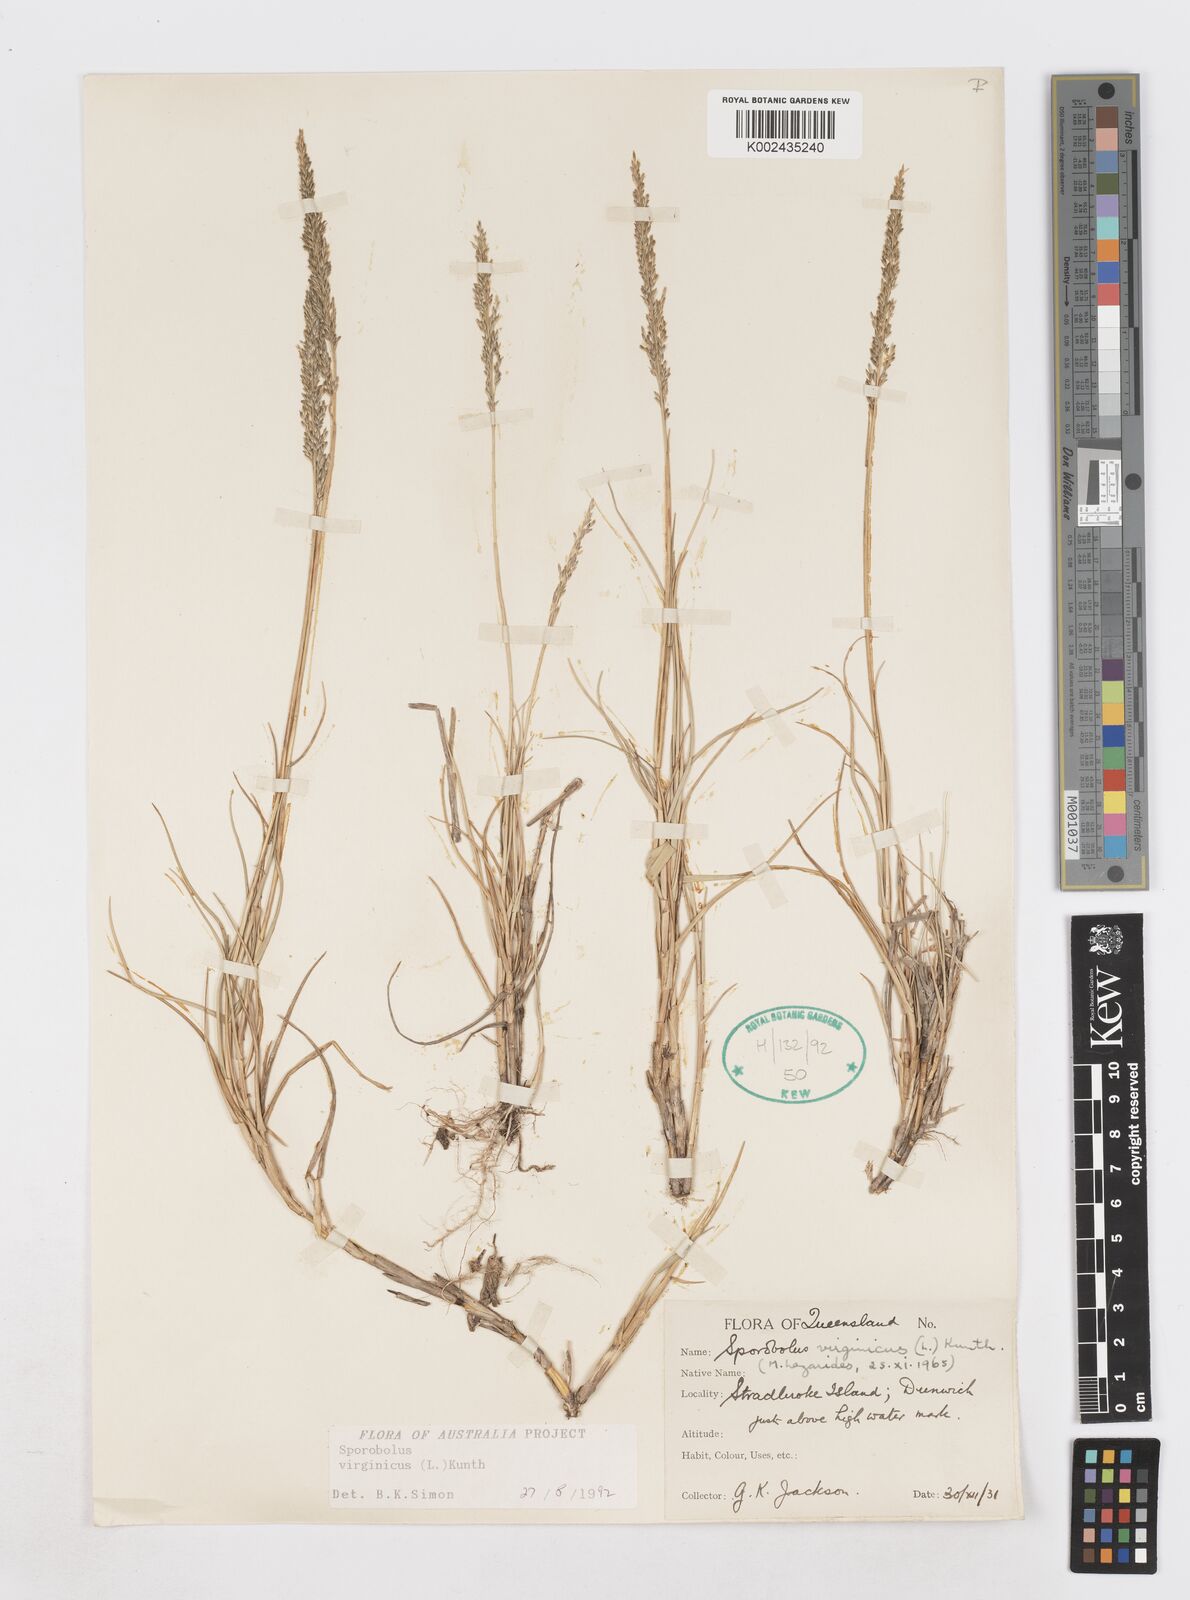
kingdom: Plantae
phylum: Tracheophyta
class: Liliopsida
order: Poales
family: Poaceae
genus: Sporobolus
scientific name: Sporobolus virginicus
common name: Beach dropseed
